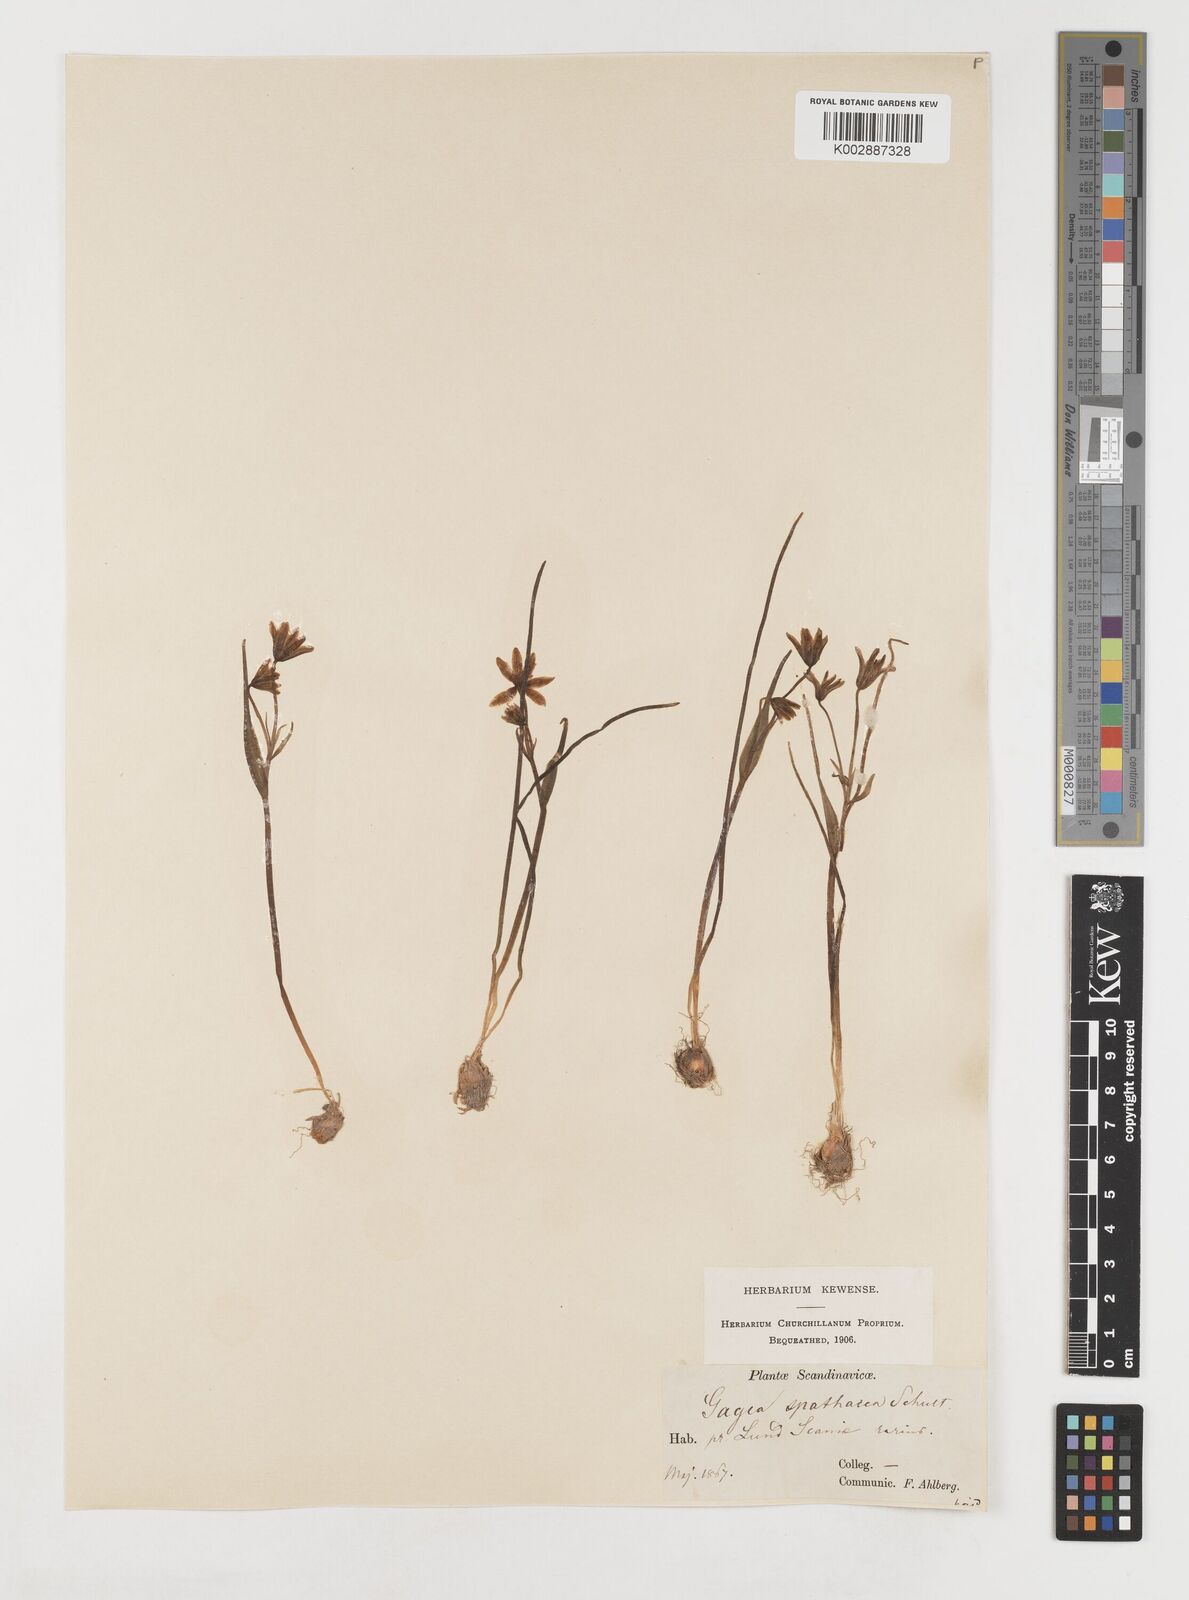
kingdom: Plantae
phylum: Tracheophyta
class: Liliopsida
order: Liliales
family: Liliaceae
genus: Gagea
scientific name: Gagea spathacea
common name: Belgian gagea
